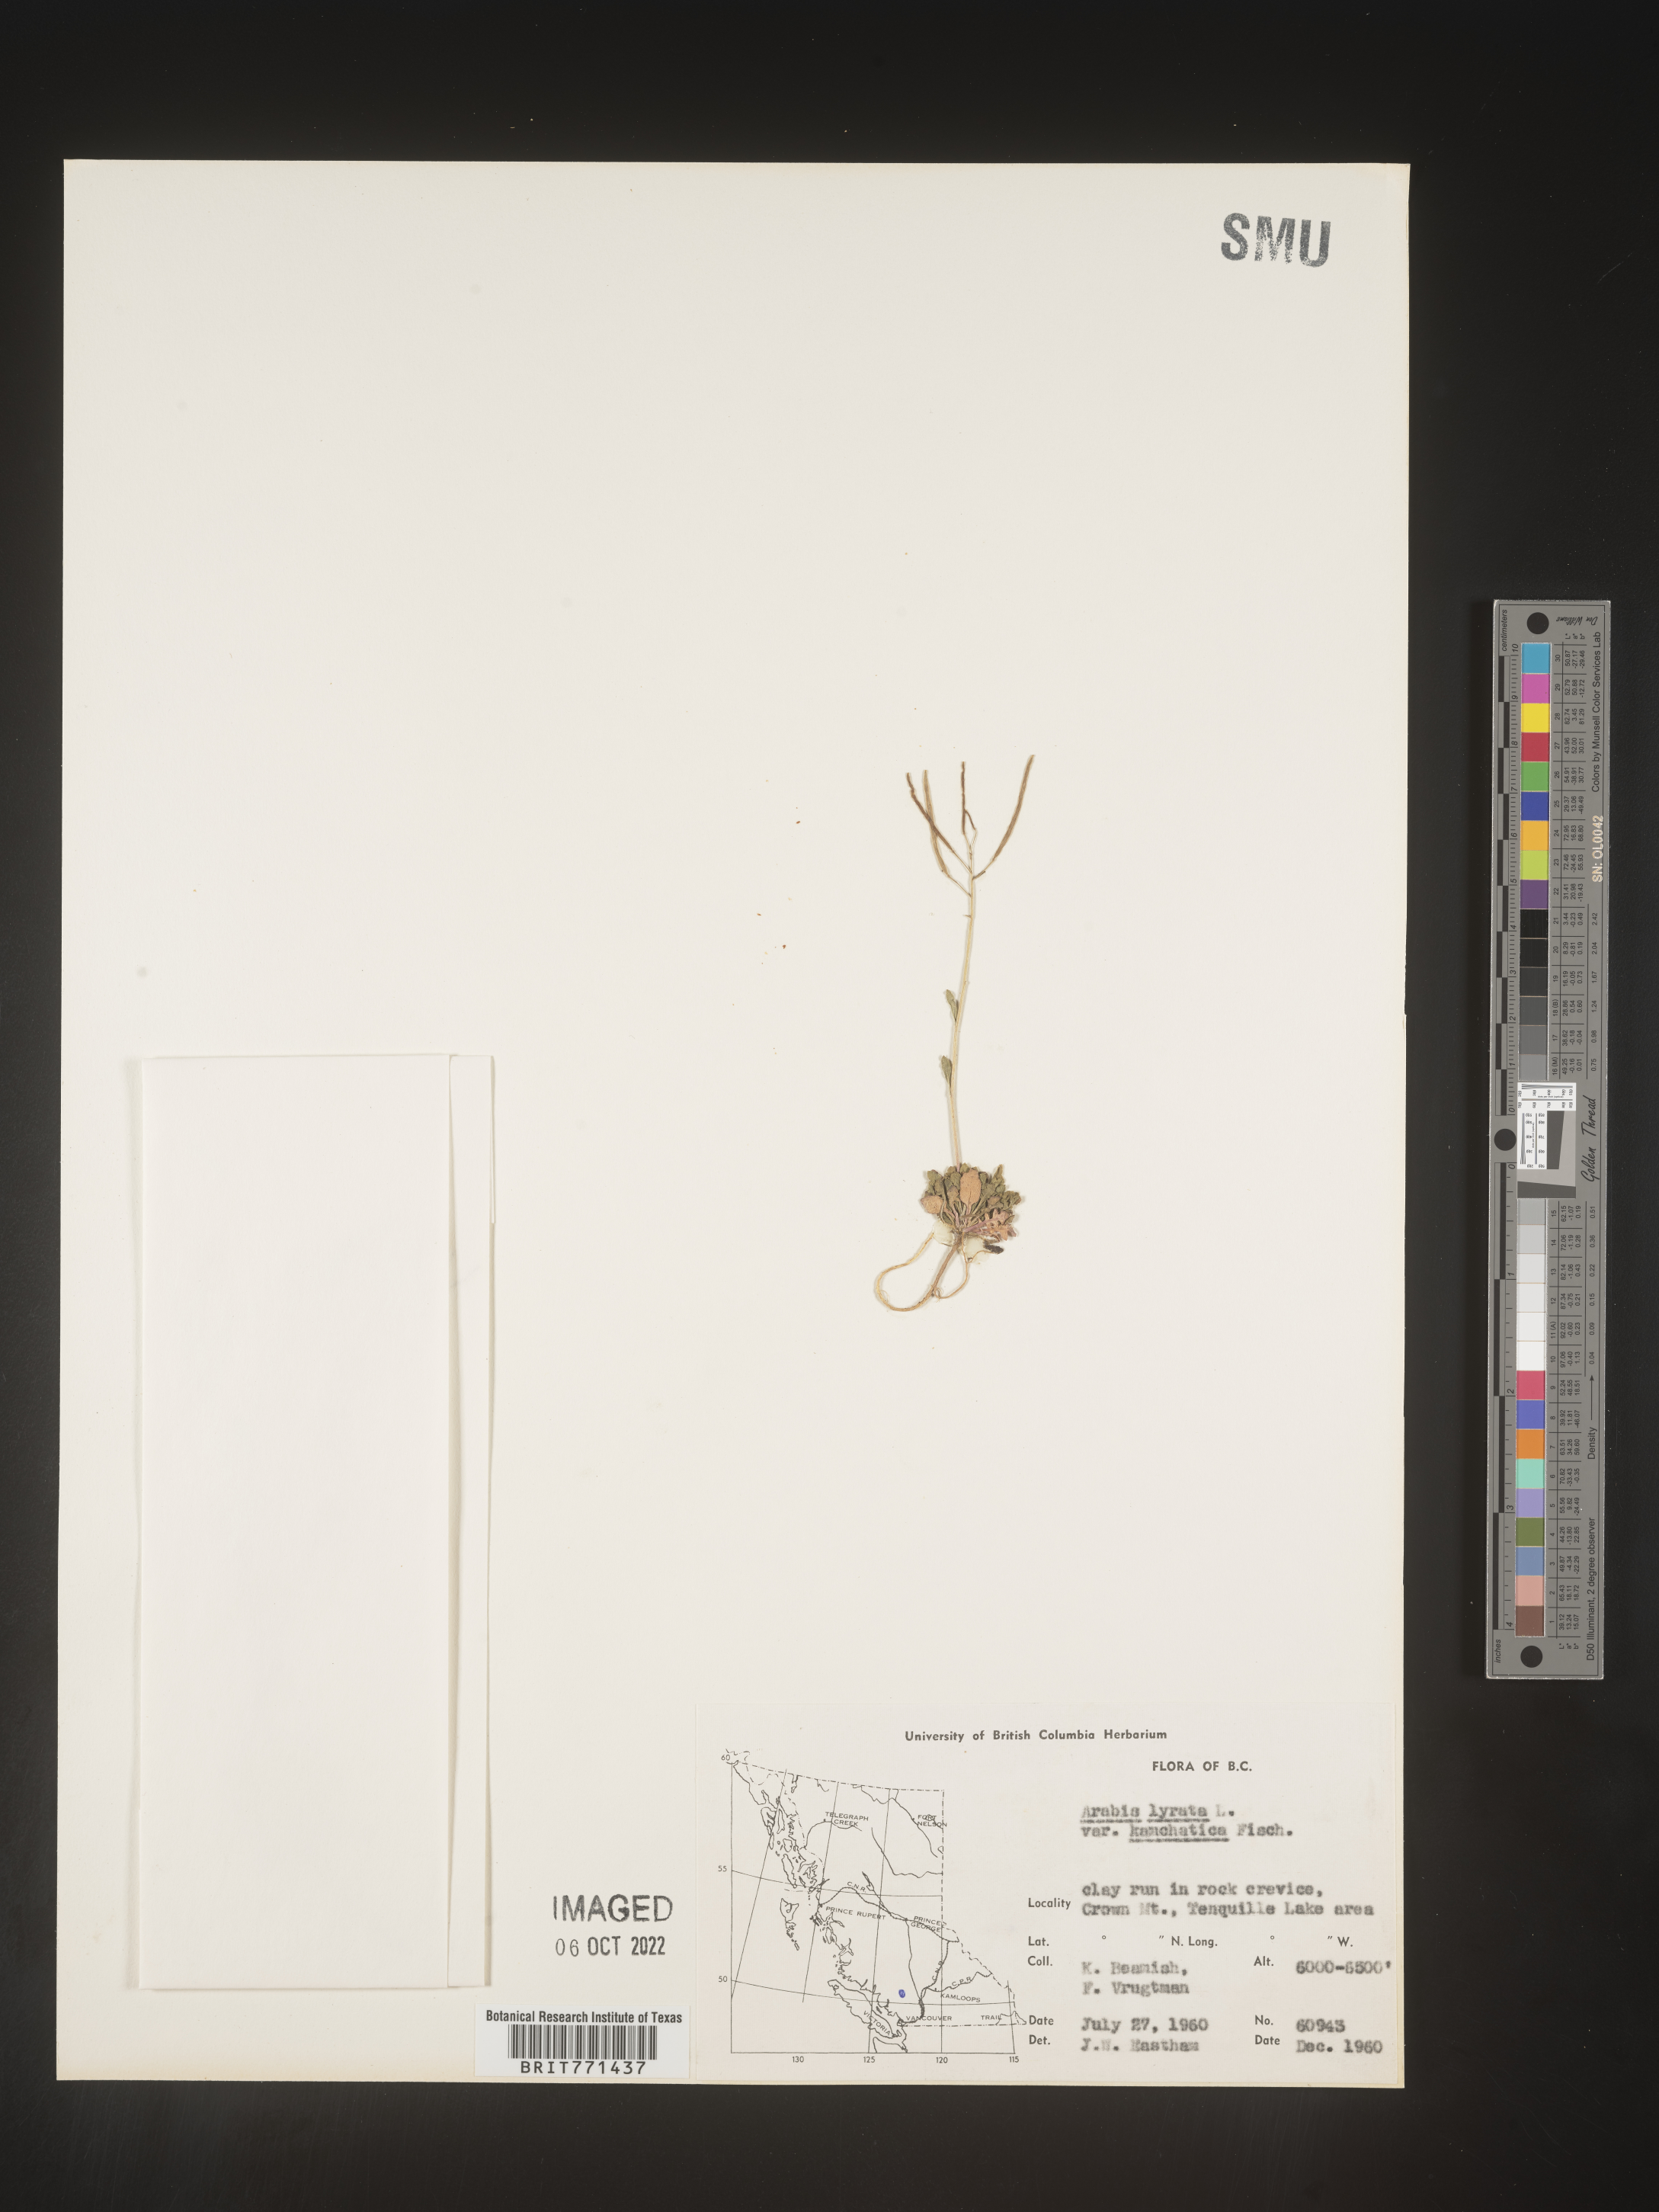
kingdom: Plantae
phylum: Tracheophyta
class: Magnoliopsida
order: Brassicales
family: Brassicaceae
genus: Arabidopsis
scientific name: Arabidopsis lyrata
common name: Lyrate rockcress
